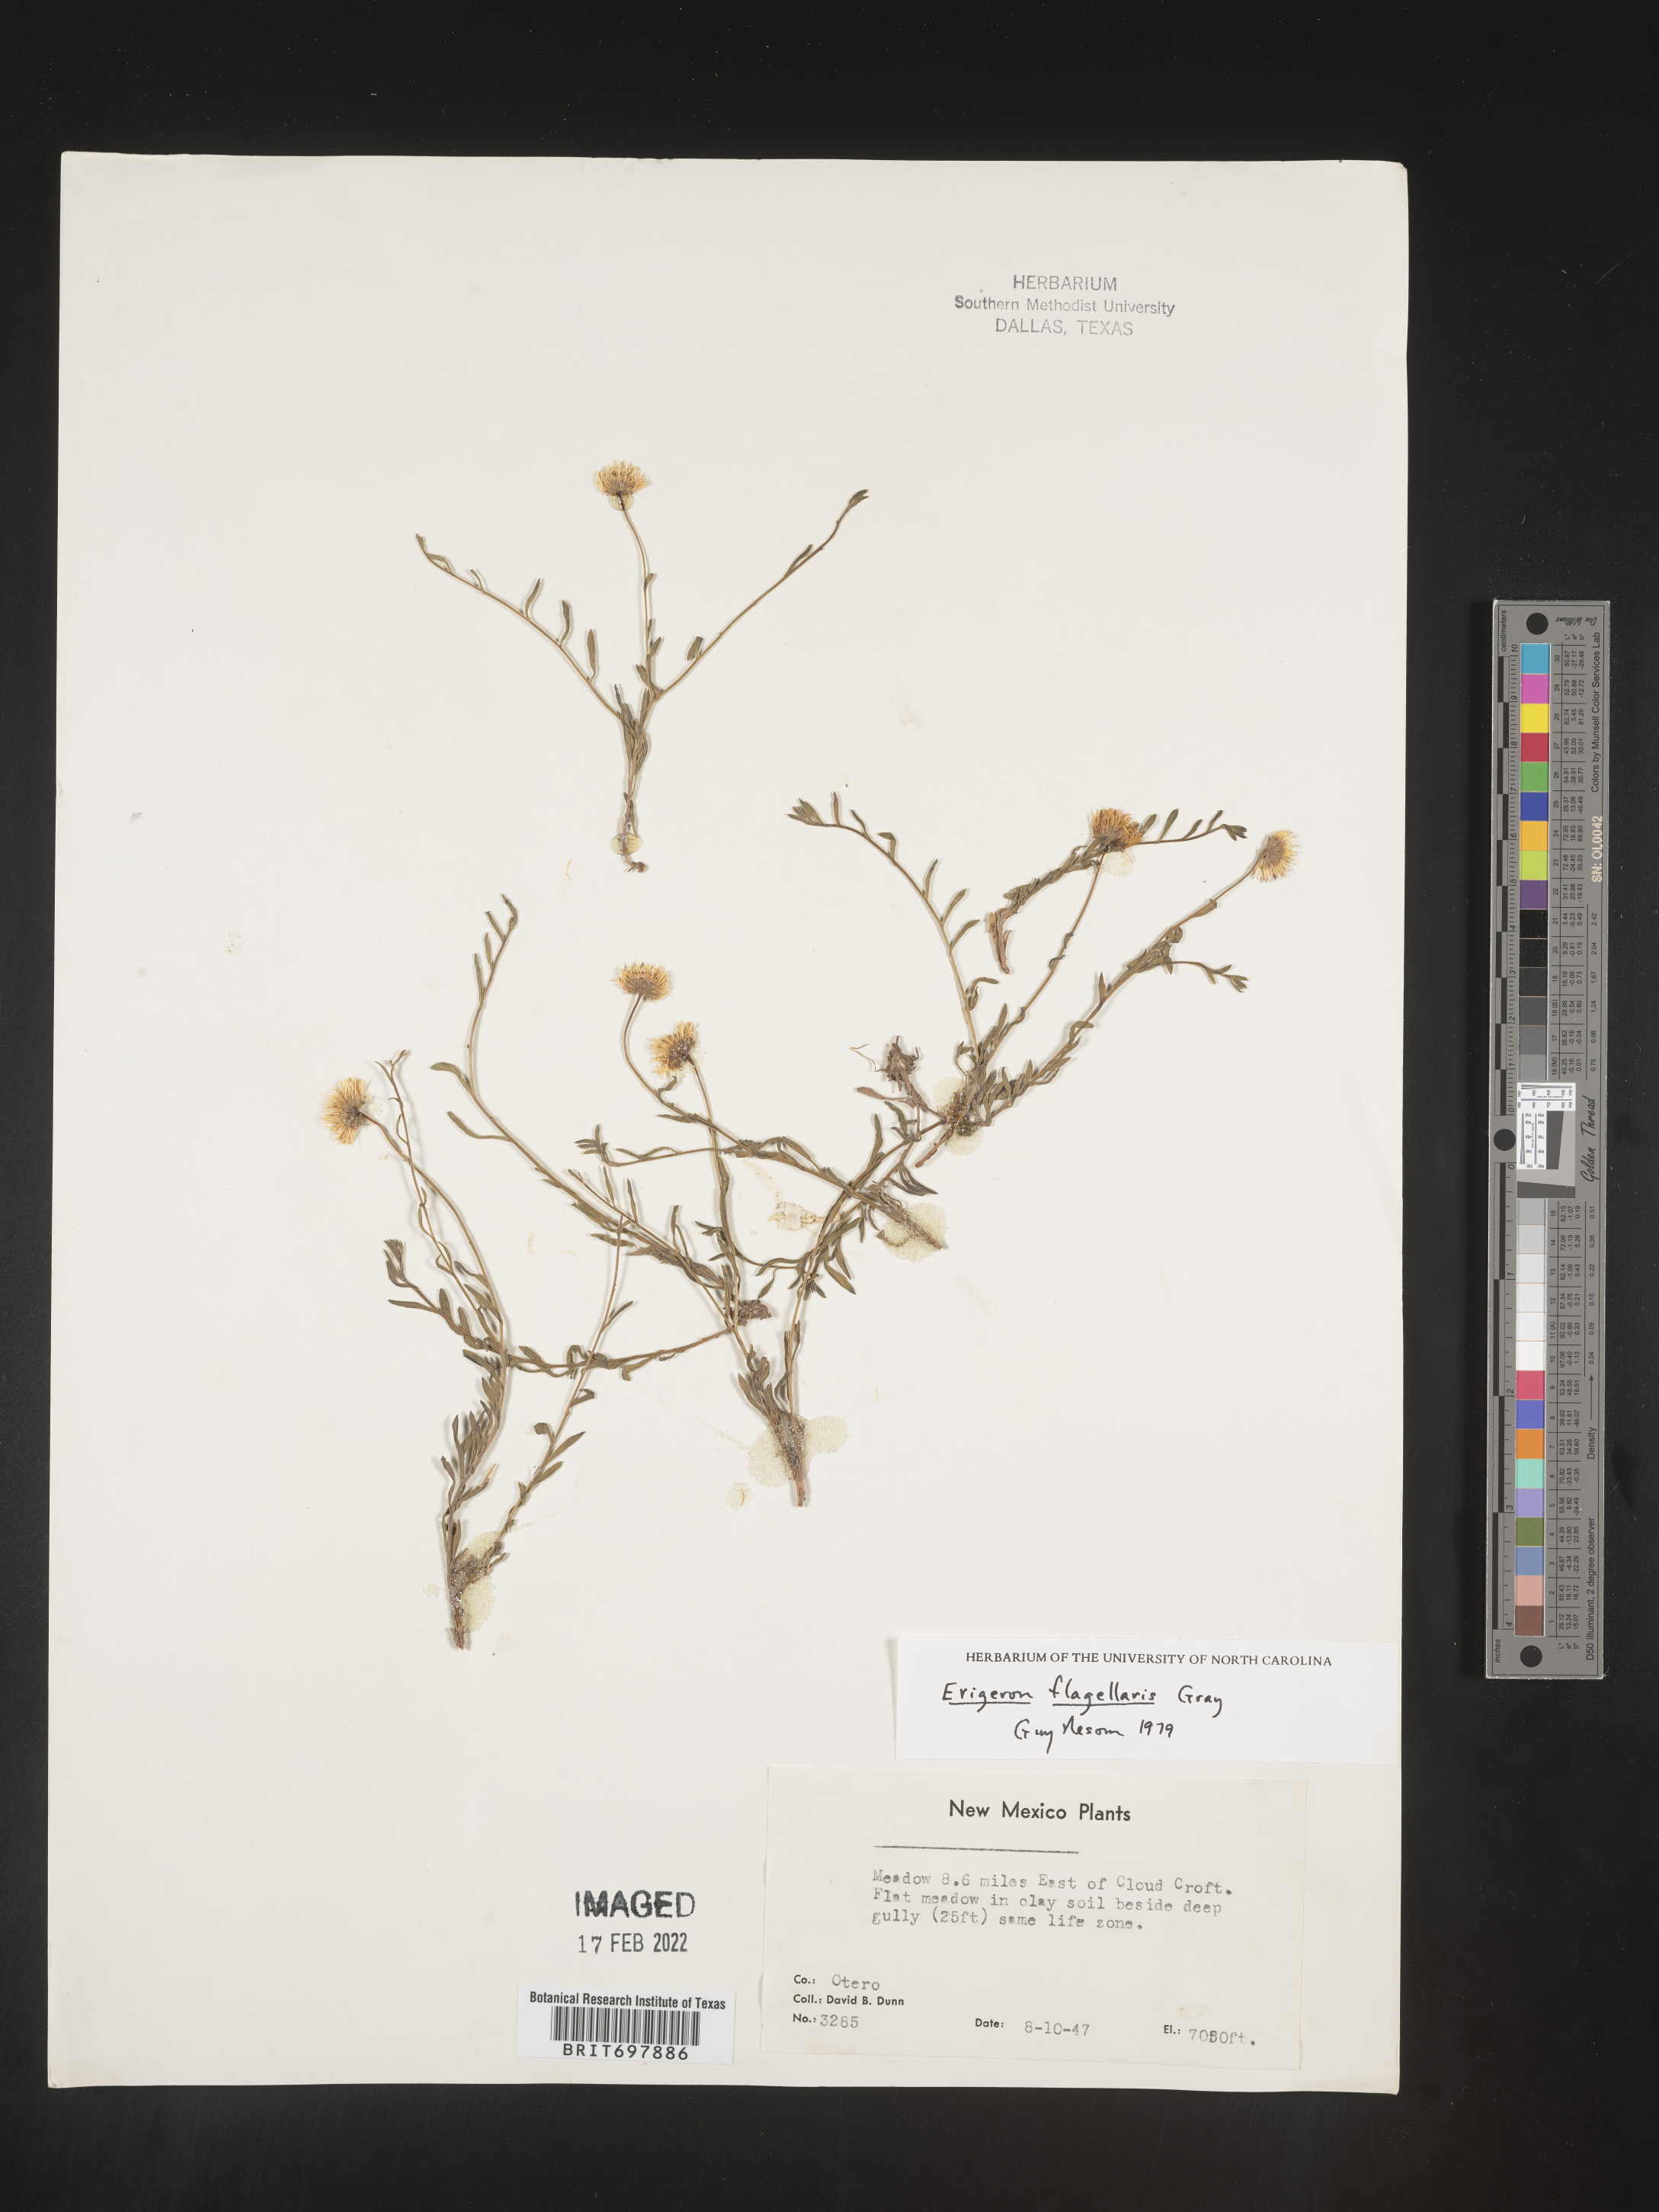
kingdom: Plantae
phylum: Tracheophyta
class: Magnoliopsida
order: Asterales
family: Asteraceae
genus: Erigeron
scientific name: Erigeron flagellaris
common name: Running fleabane
